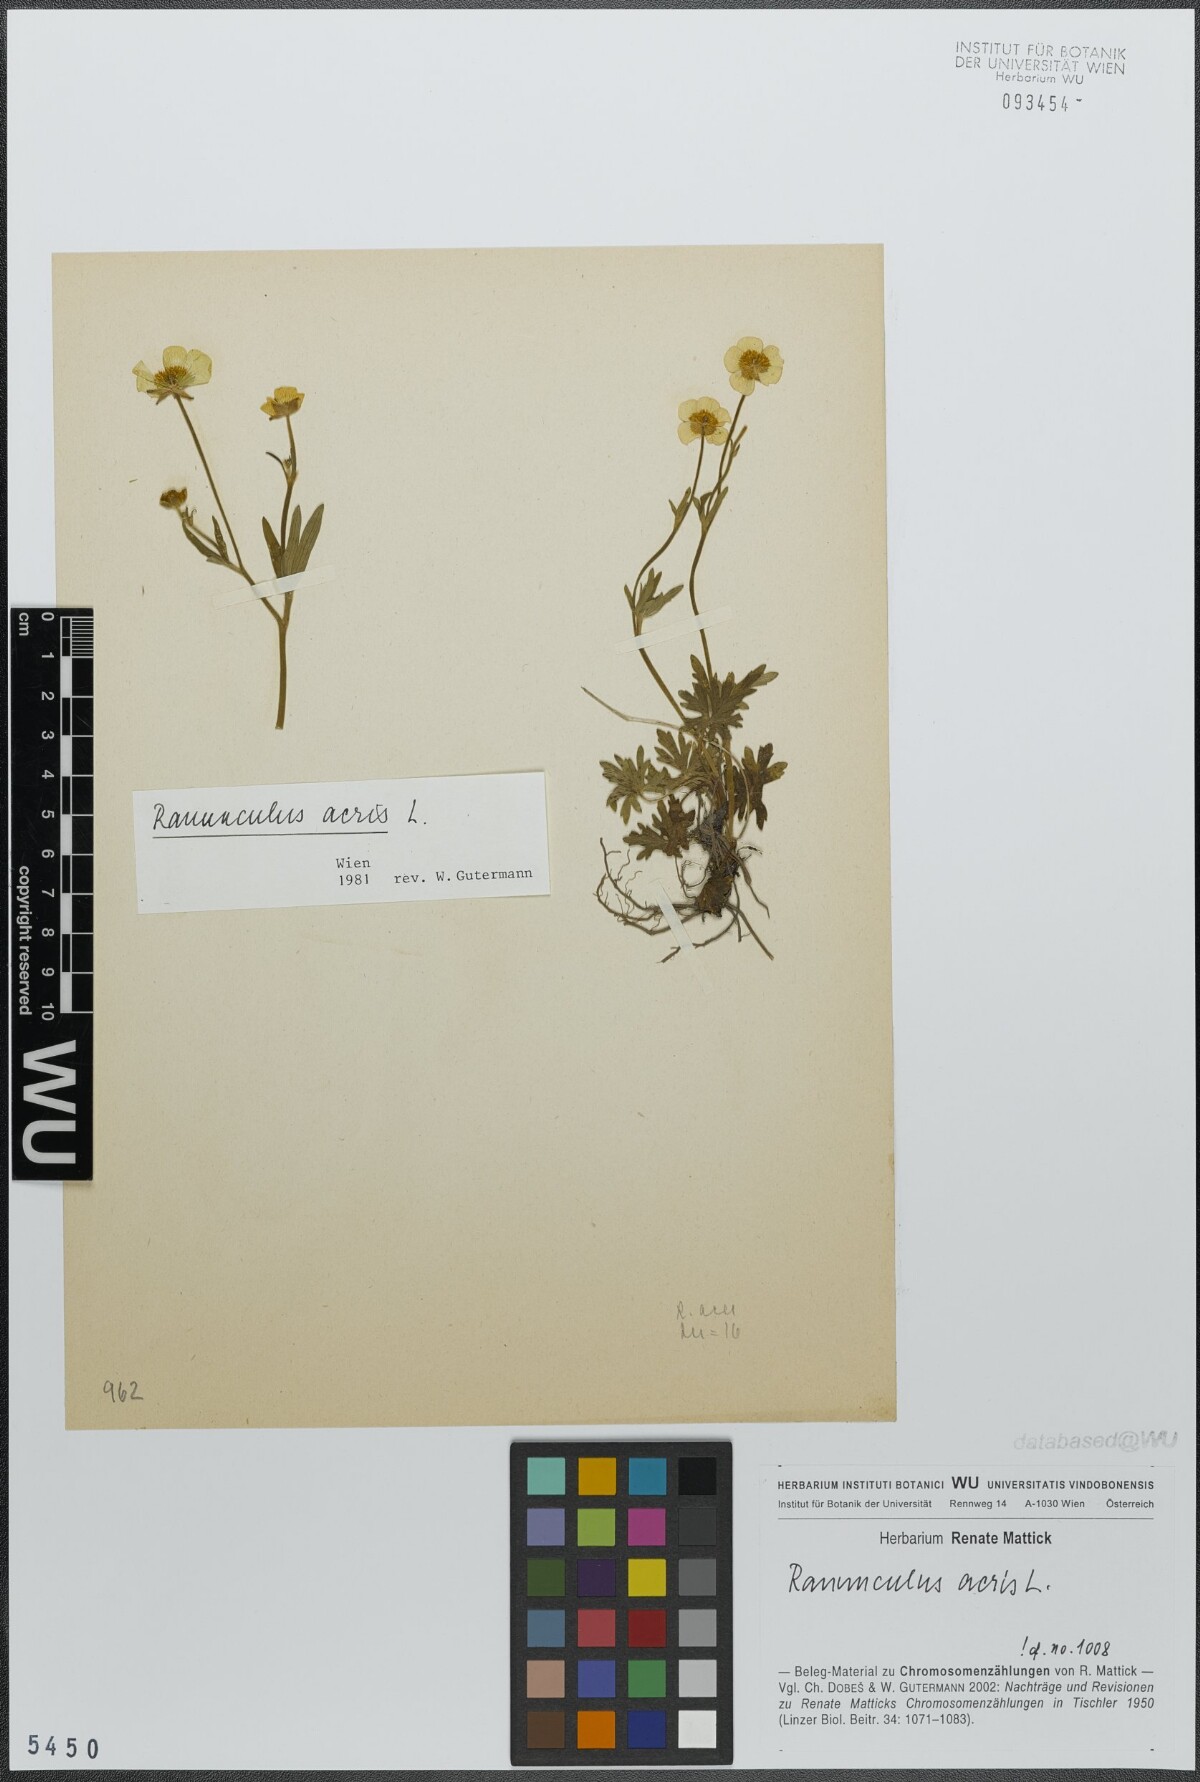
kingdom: Plantae
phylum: Tracheophyta
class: Magnoliopsida
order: Ranunculales
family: Ranunculaceae
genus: Ranunculus
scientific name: Ranunculus acris
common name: Meadow buttercup
